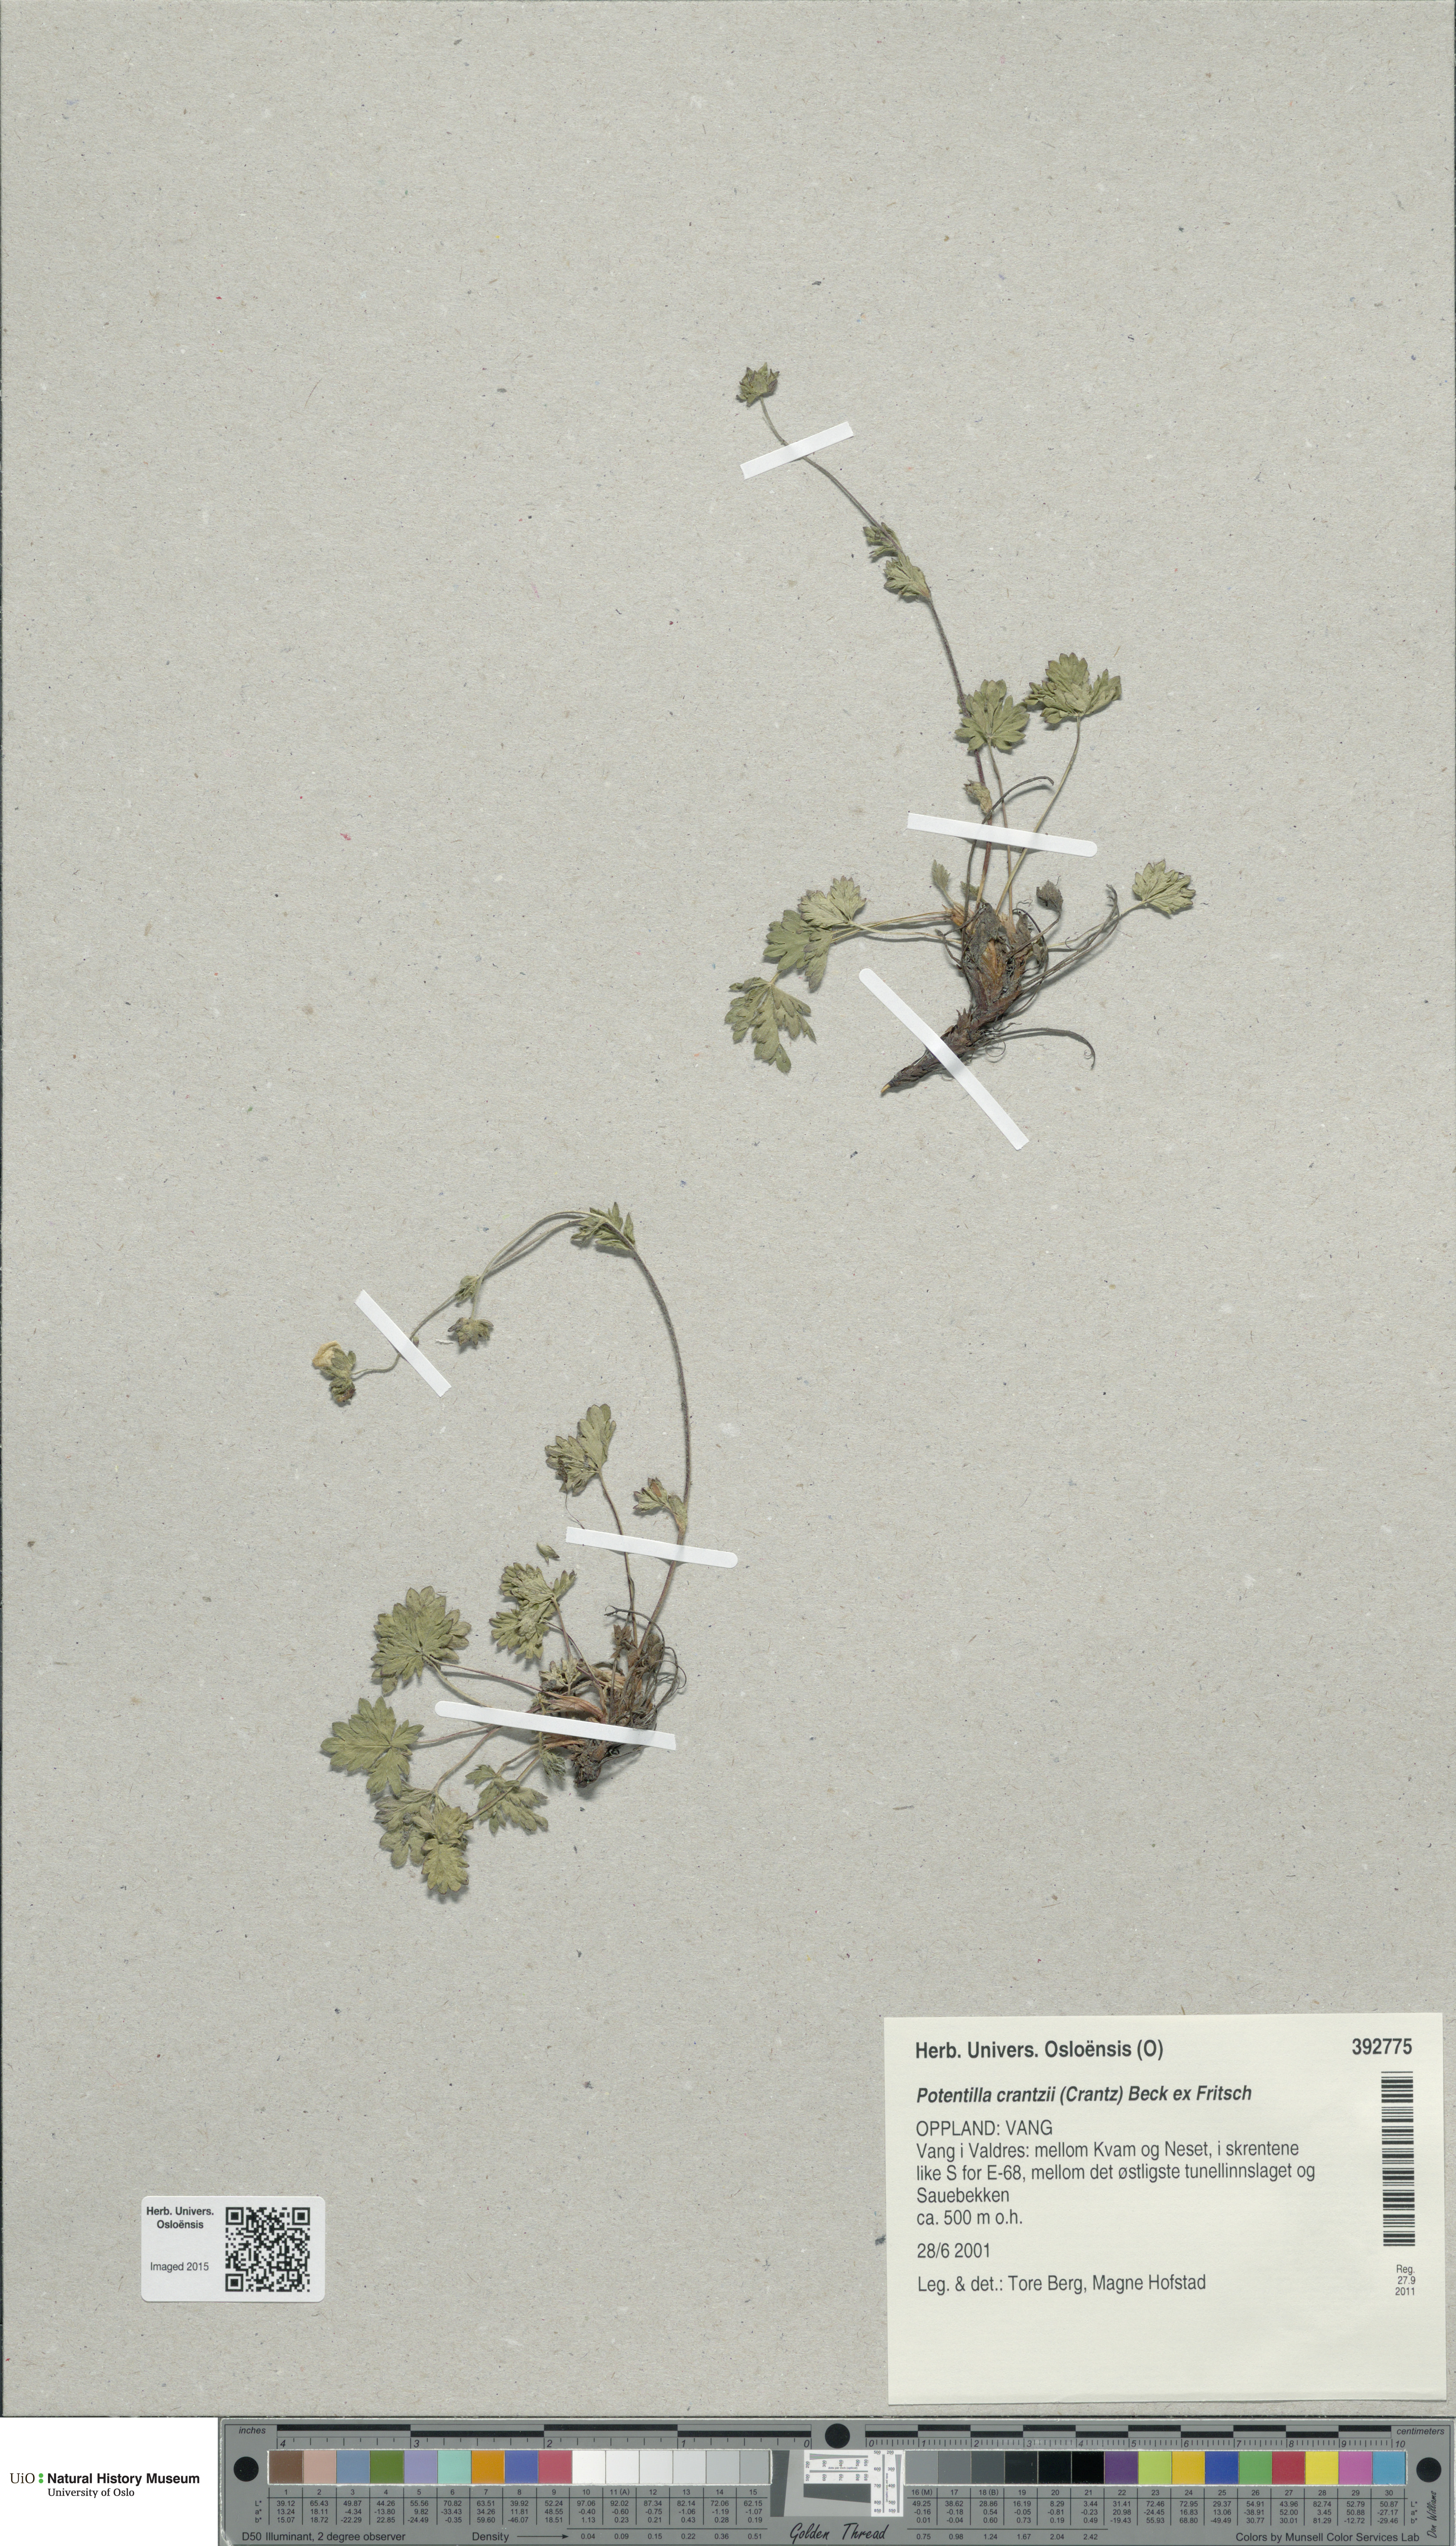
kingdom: Plantae
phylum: Tracheophyta
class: Magnoliopsida
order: Rosales
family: Rosaceae
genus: Potentilla
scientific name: Potentilla crantzii
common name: Alpine cinquefoil
